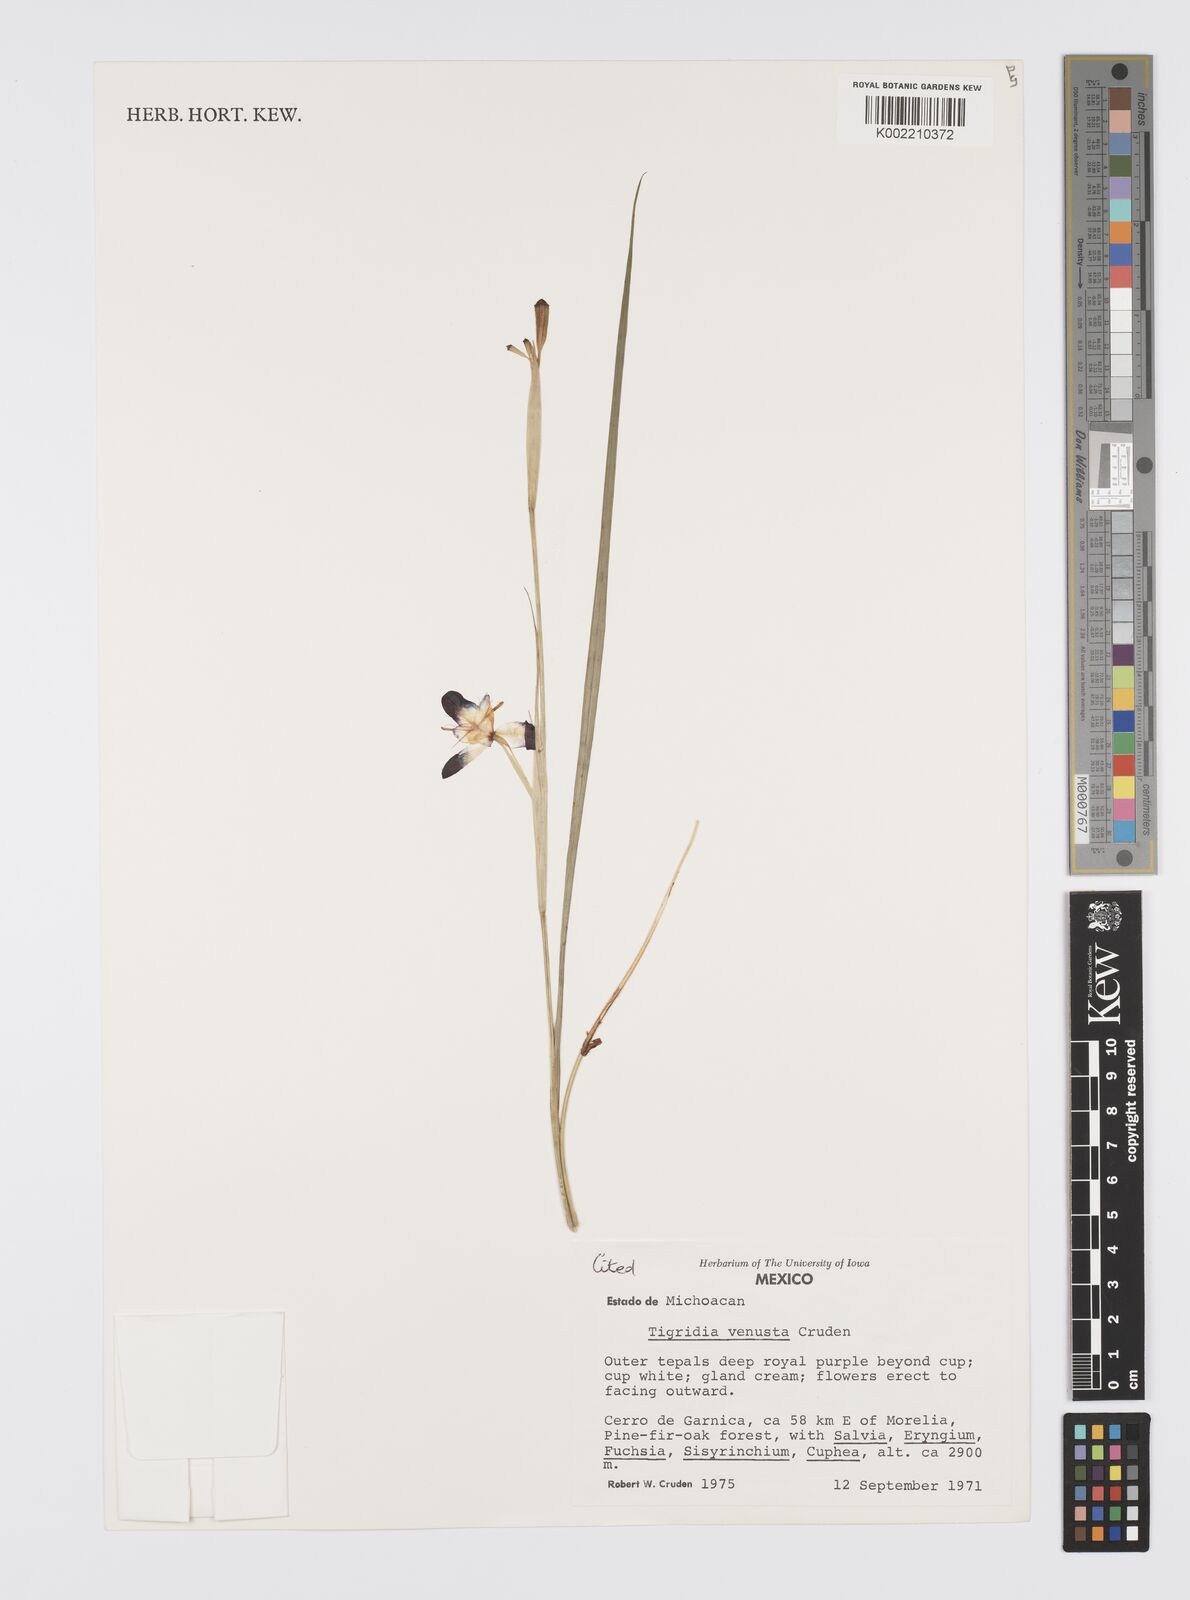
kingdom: Plantae
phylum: Tracheophyta
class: Liliopsida
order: Asparagales
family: Iridaceae
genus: Tigridia
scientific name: Tigridia venusta
